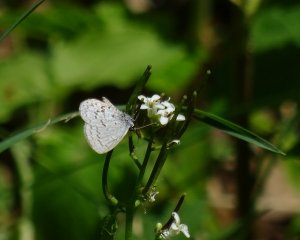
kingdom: Animalia
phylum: Arthropoda
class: Insecta
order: Lepidoptera
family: Lycaenidae
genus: Celastrina
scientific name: Celastrina lucia
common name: Northern Spring Azure
